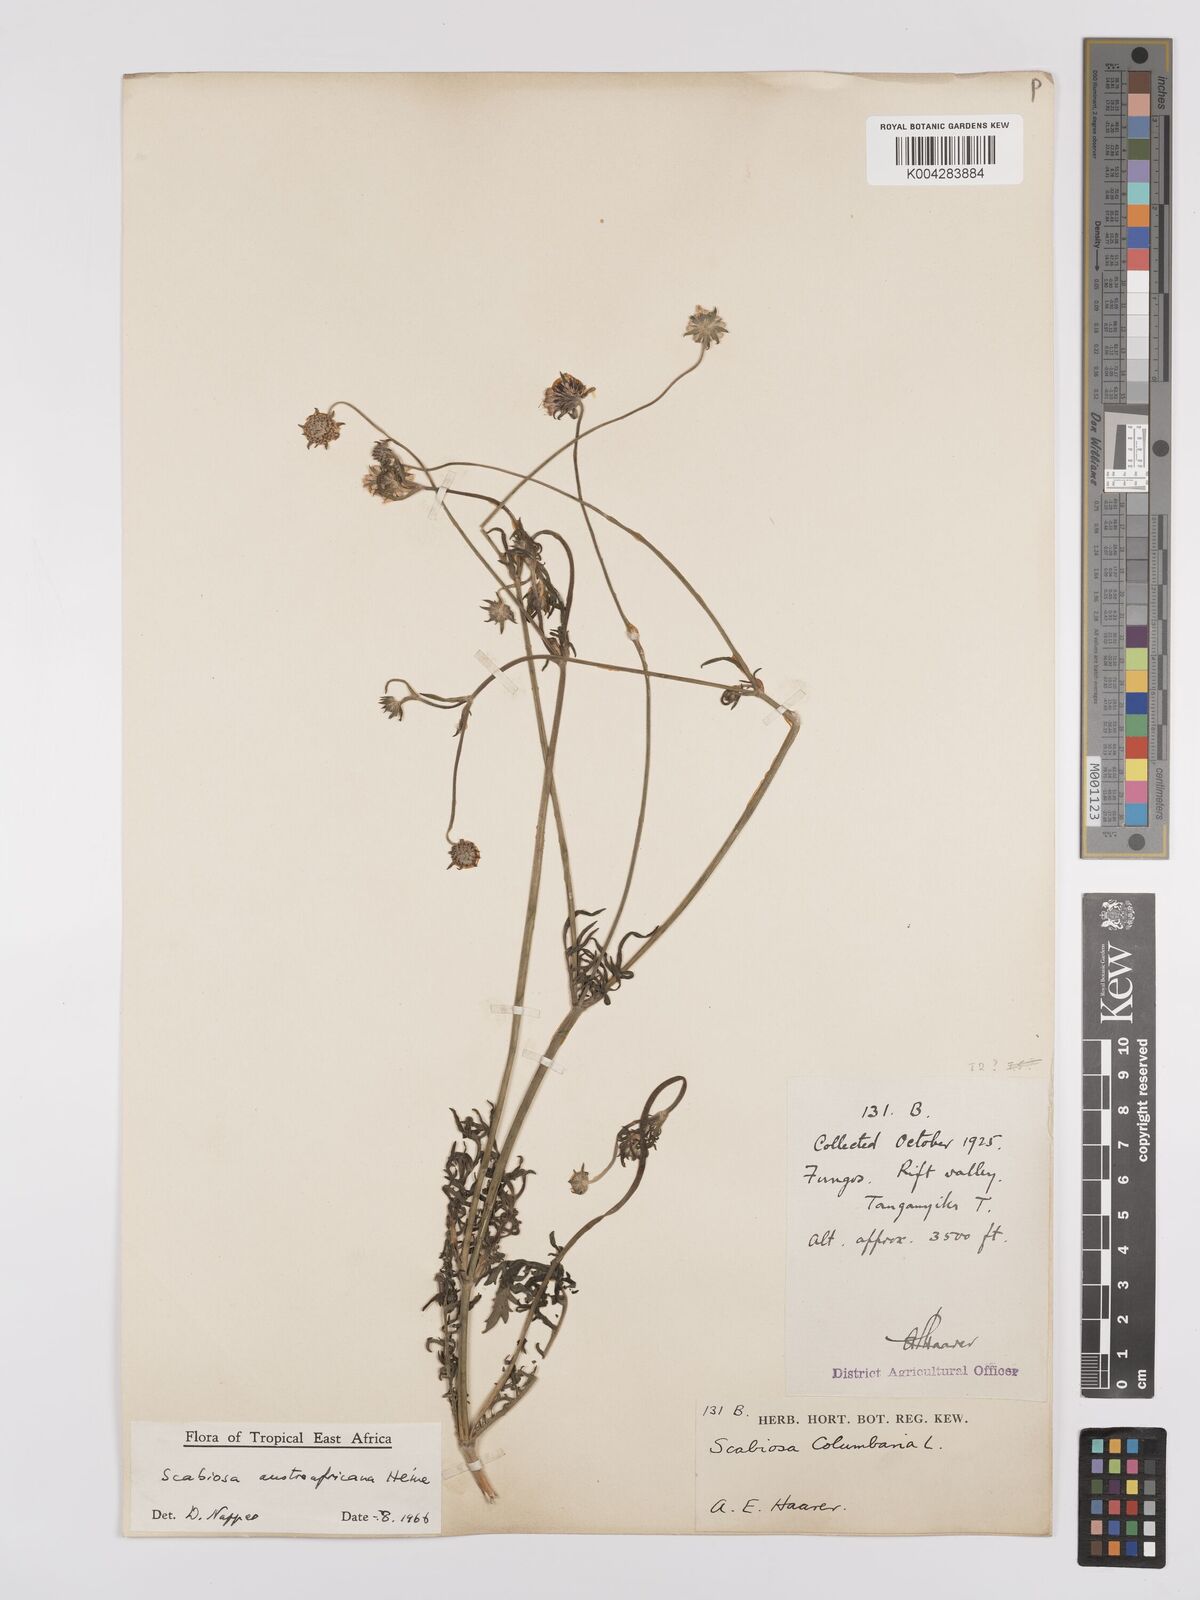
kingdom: Plantae
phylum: Tracheophyta
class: Magnoliopsida
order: Dipsacales
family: Caprifoliaceae
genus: Scabiosa
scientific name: Scabiosa austroafricana
